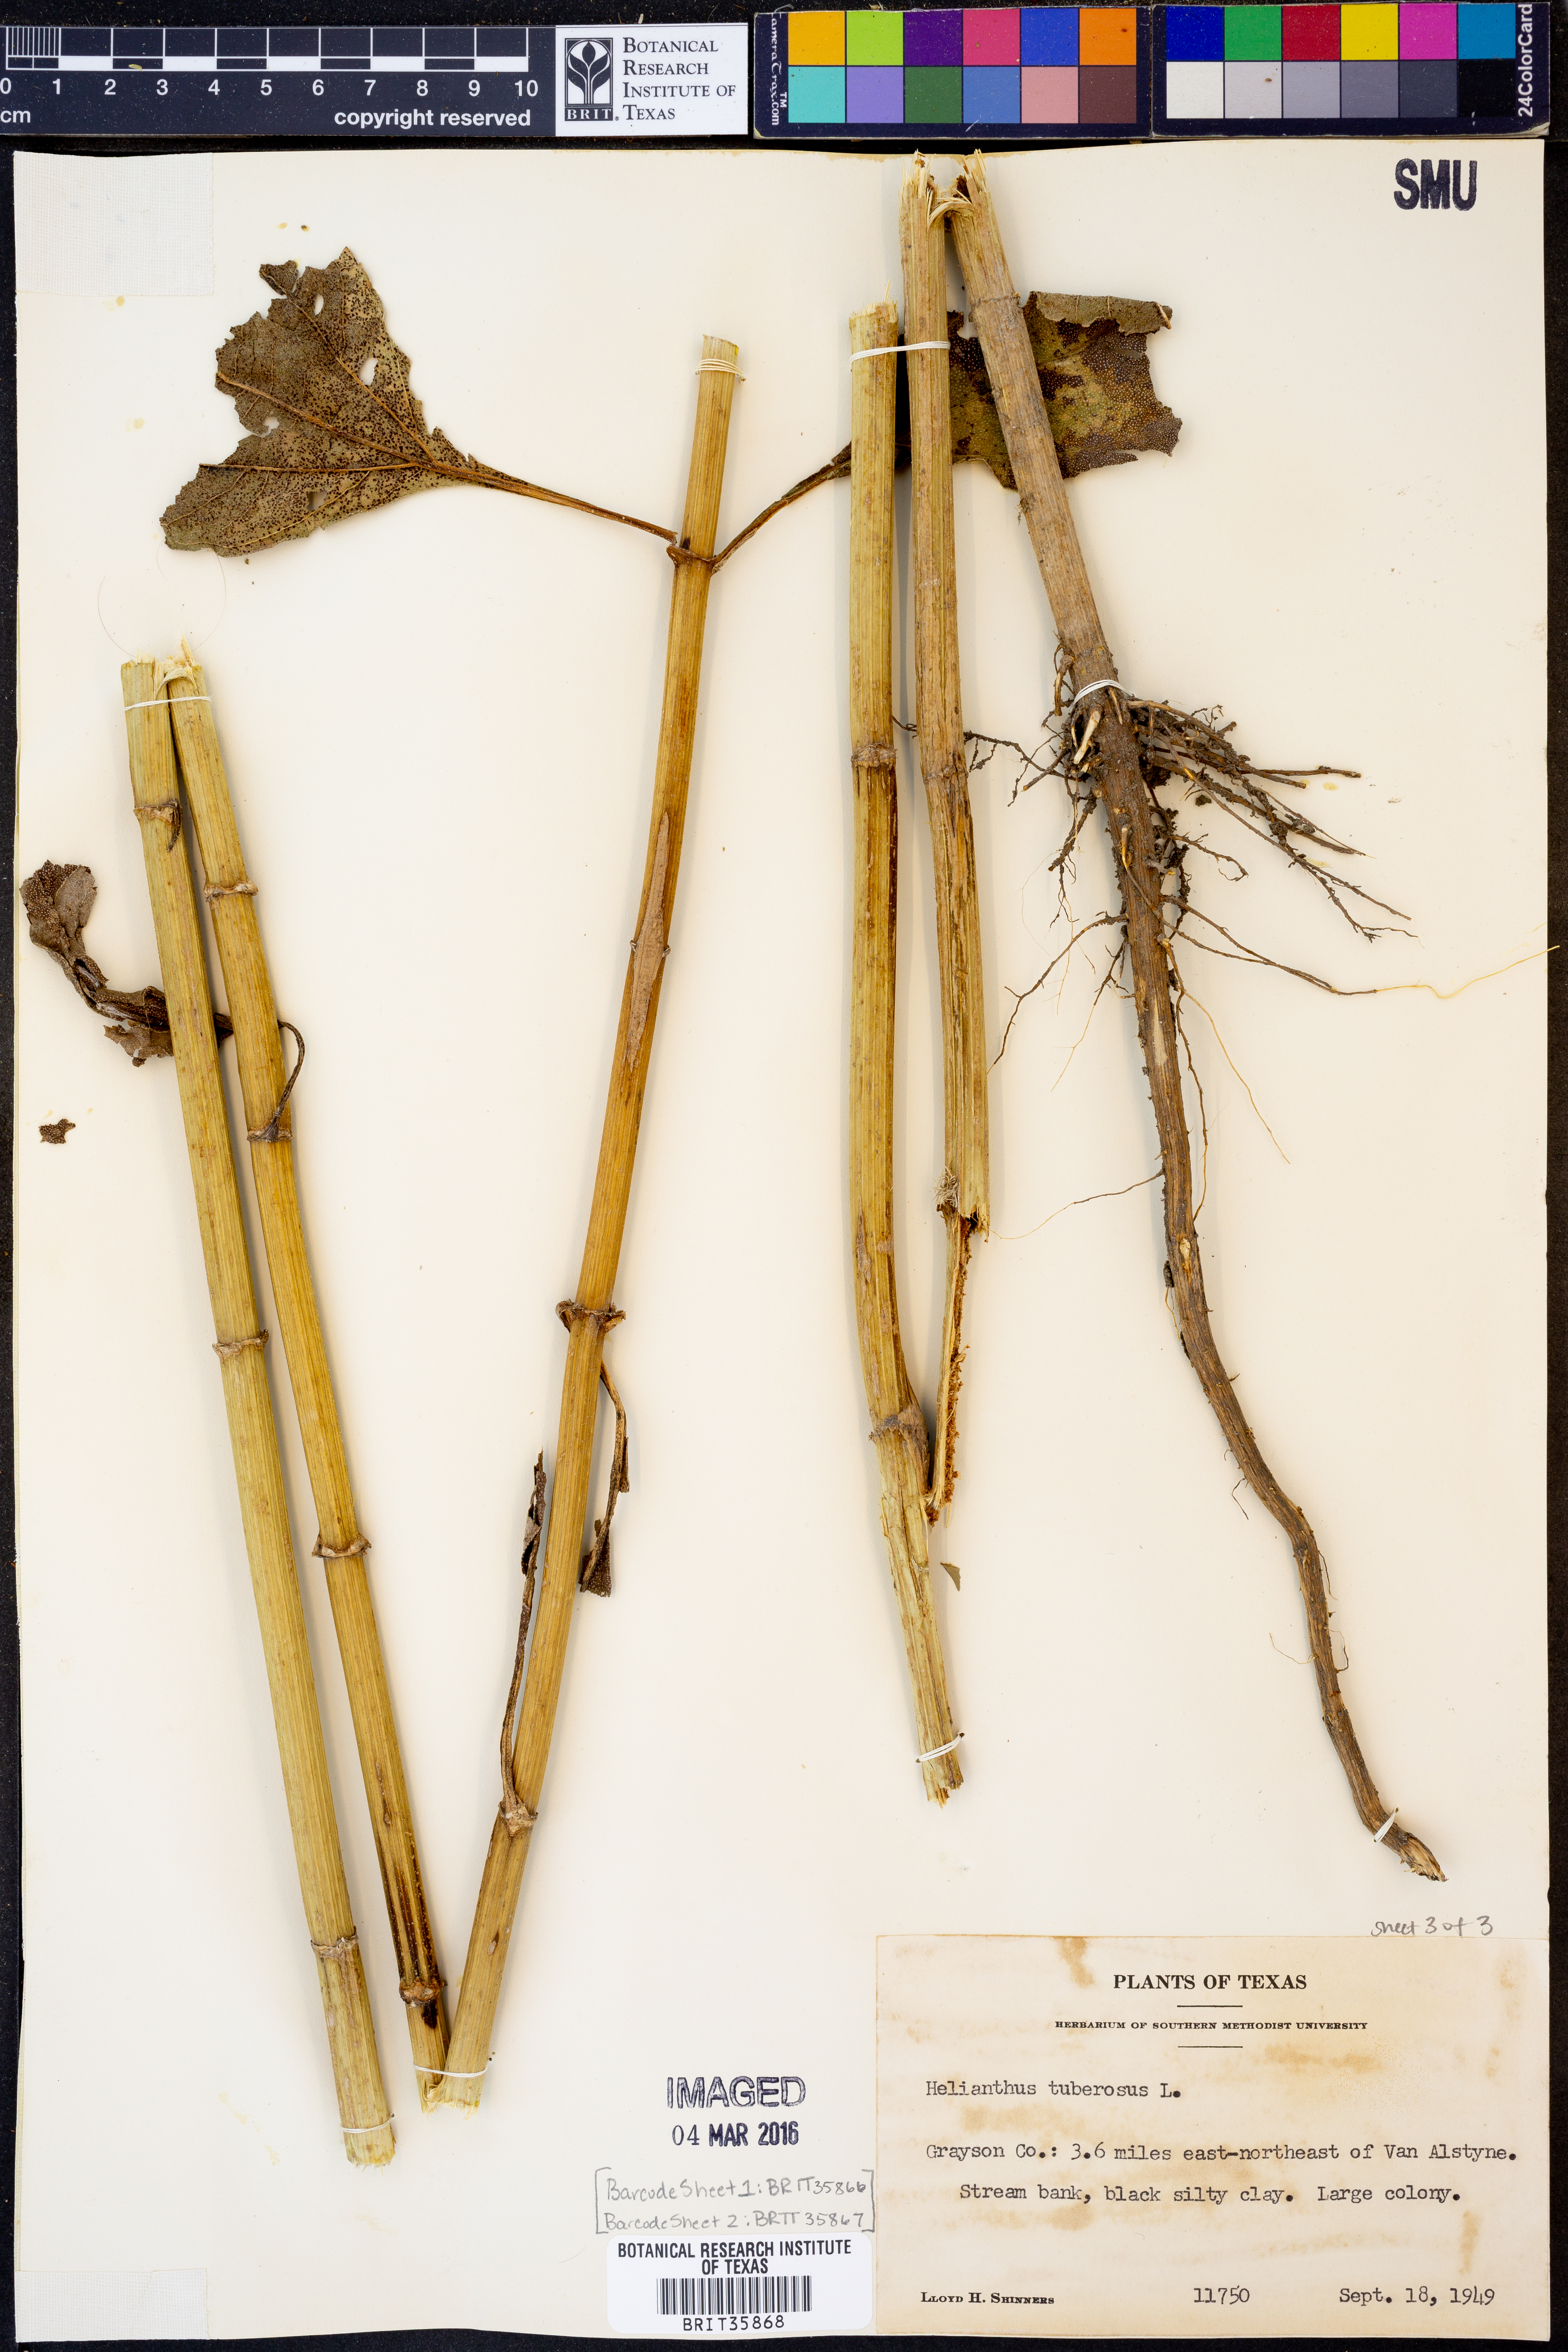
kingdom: Plantae
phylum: Tracheophyta
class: Magnoliopsida
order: Asterales
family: Asteraceae
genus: Helianthus
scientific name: Helianthus tuberosus
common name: Jerusalem artichoke
